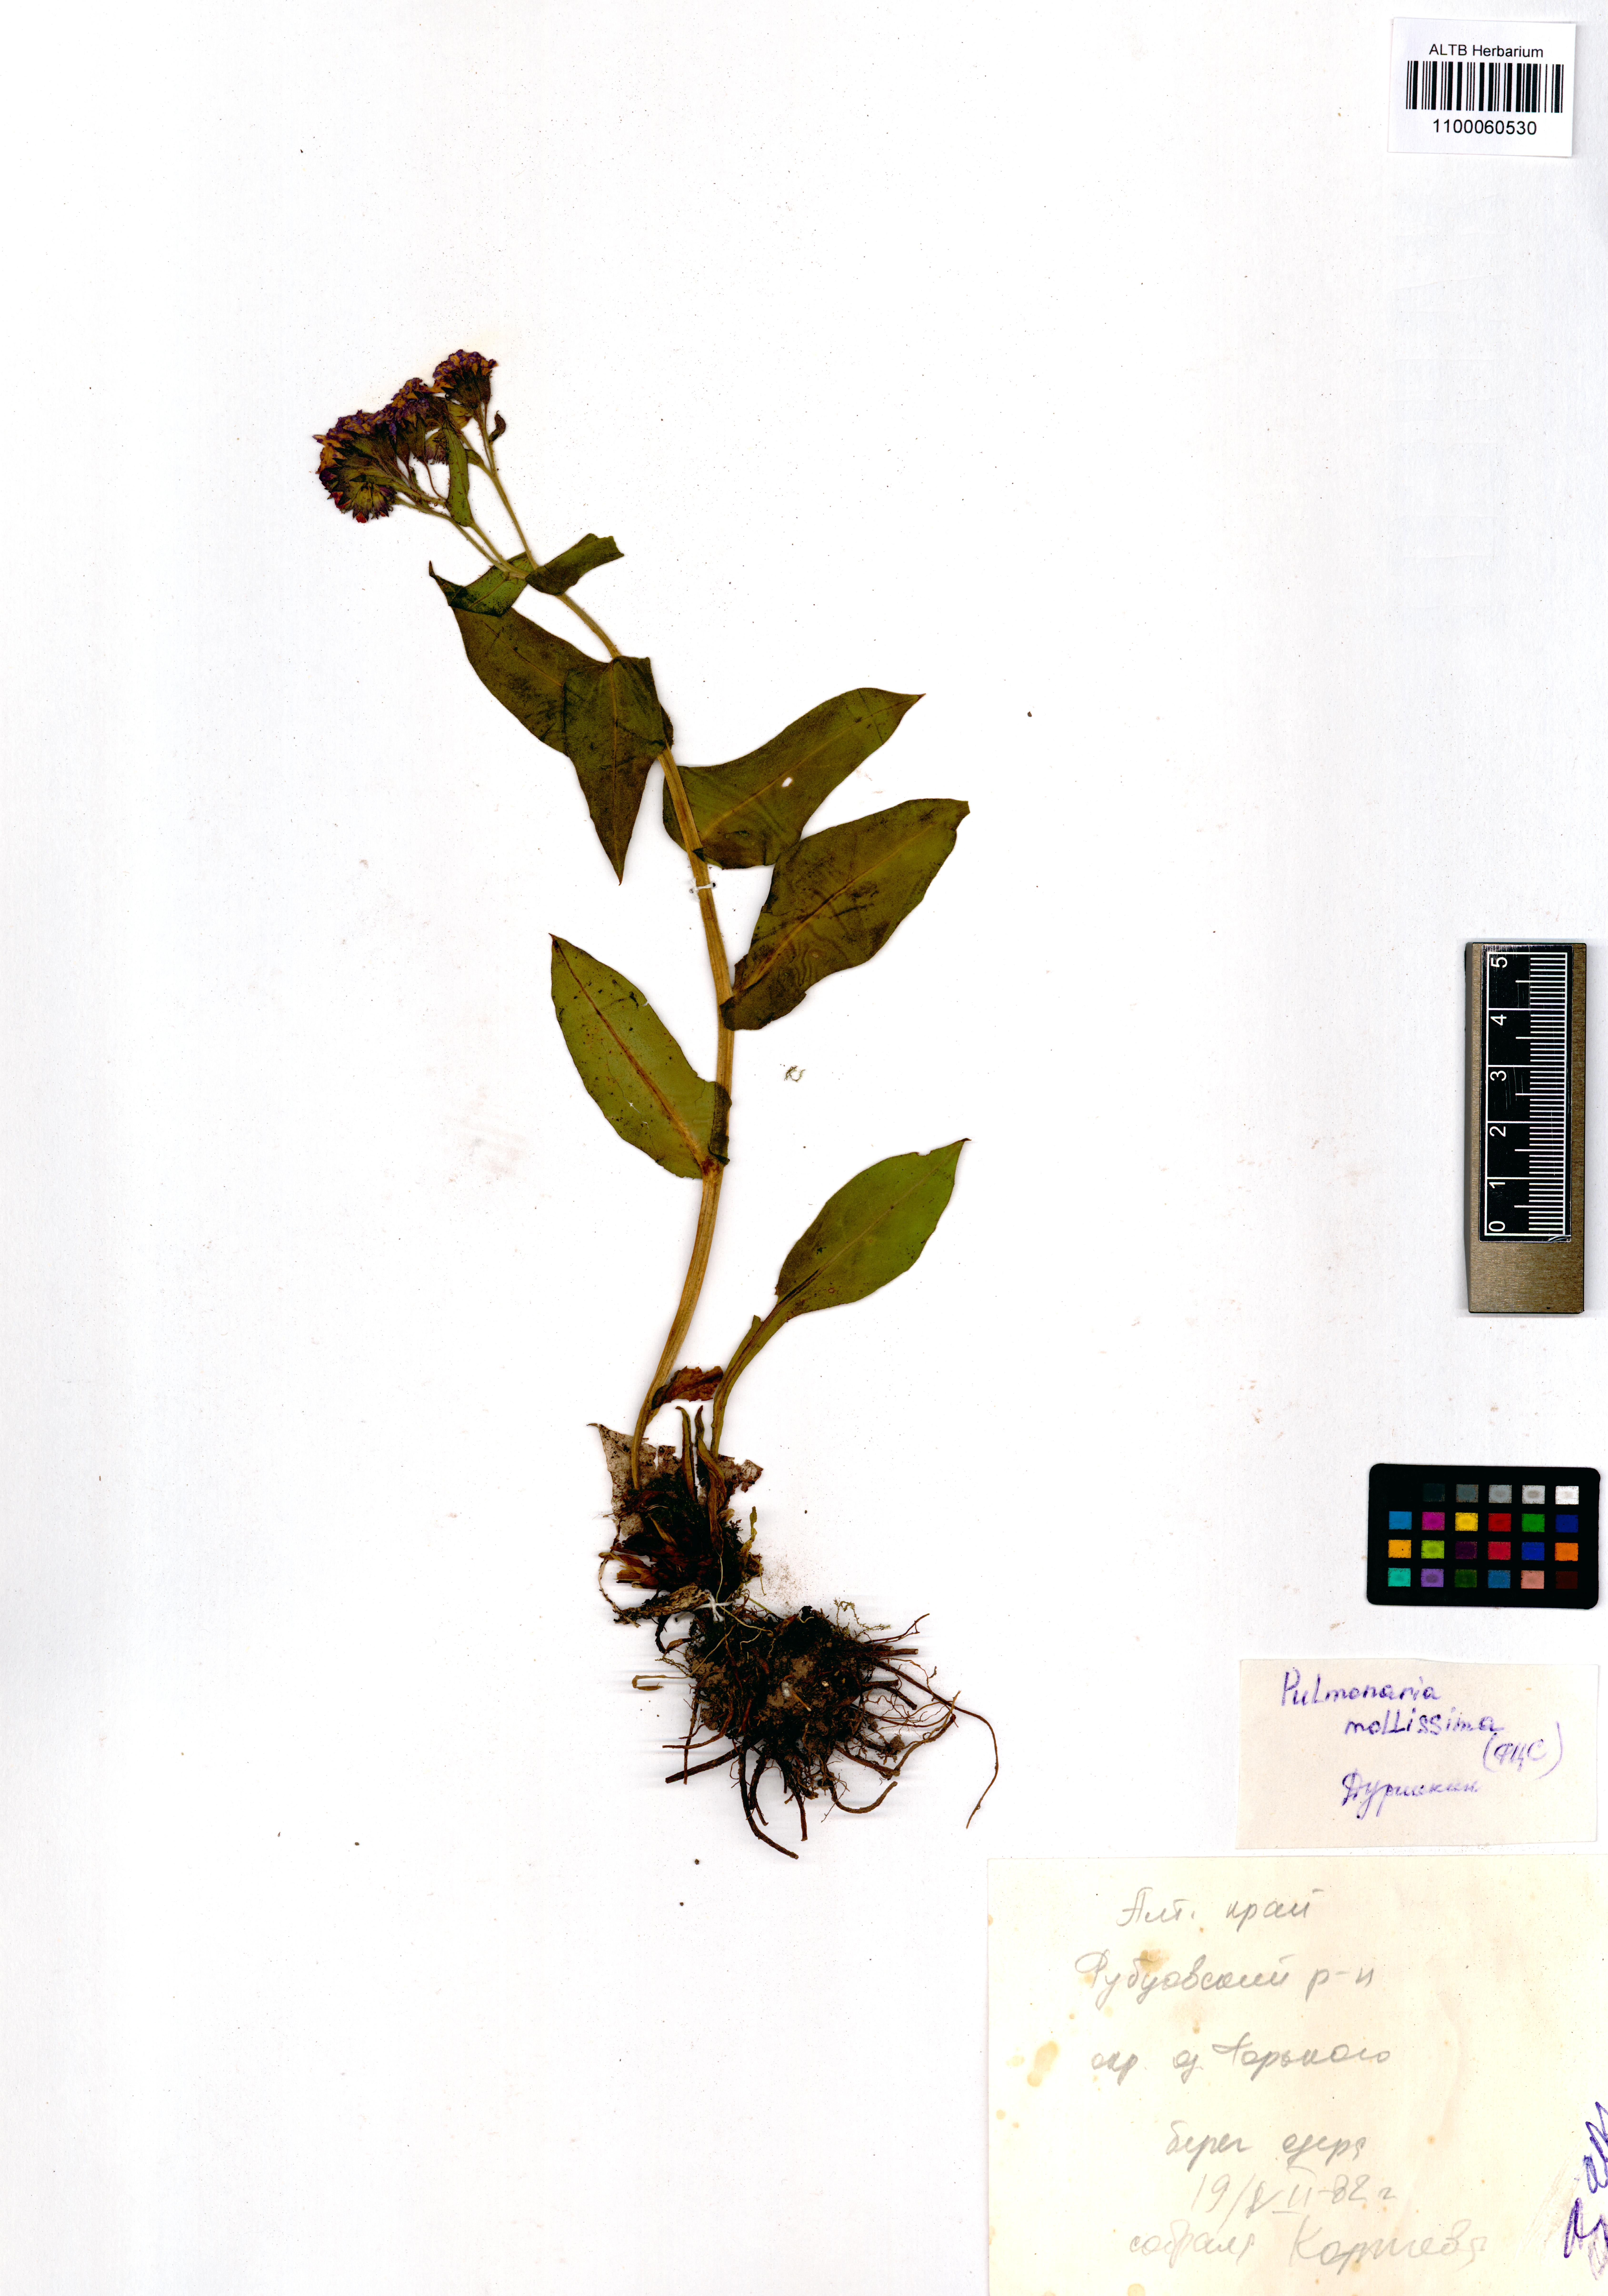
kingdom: Plantae
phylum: Tracheophyta
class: Magnoliopsida
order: Boraginales
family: Boraginaceae
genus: Pulmonaria
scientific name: Pulmonaria mollis
